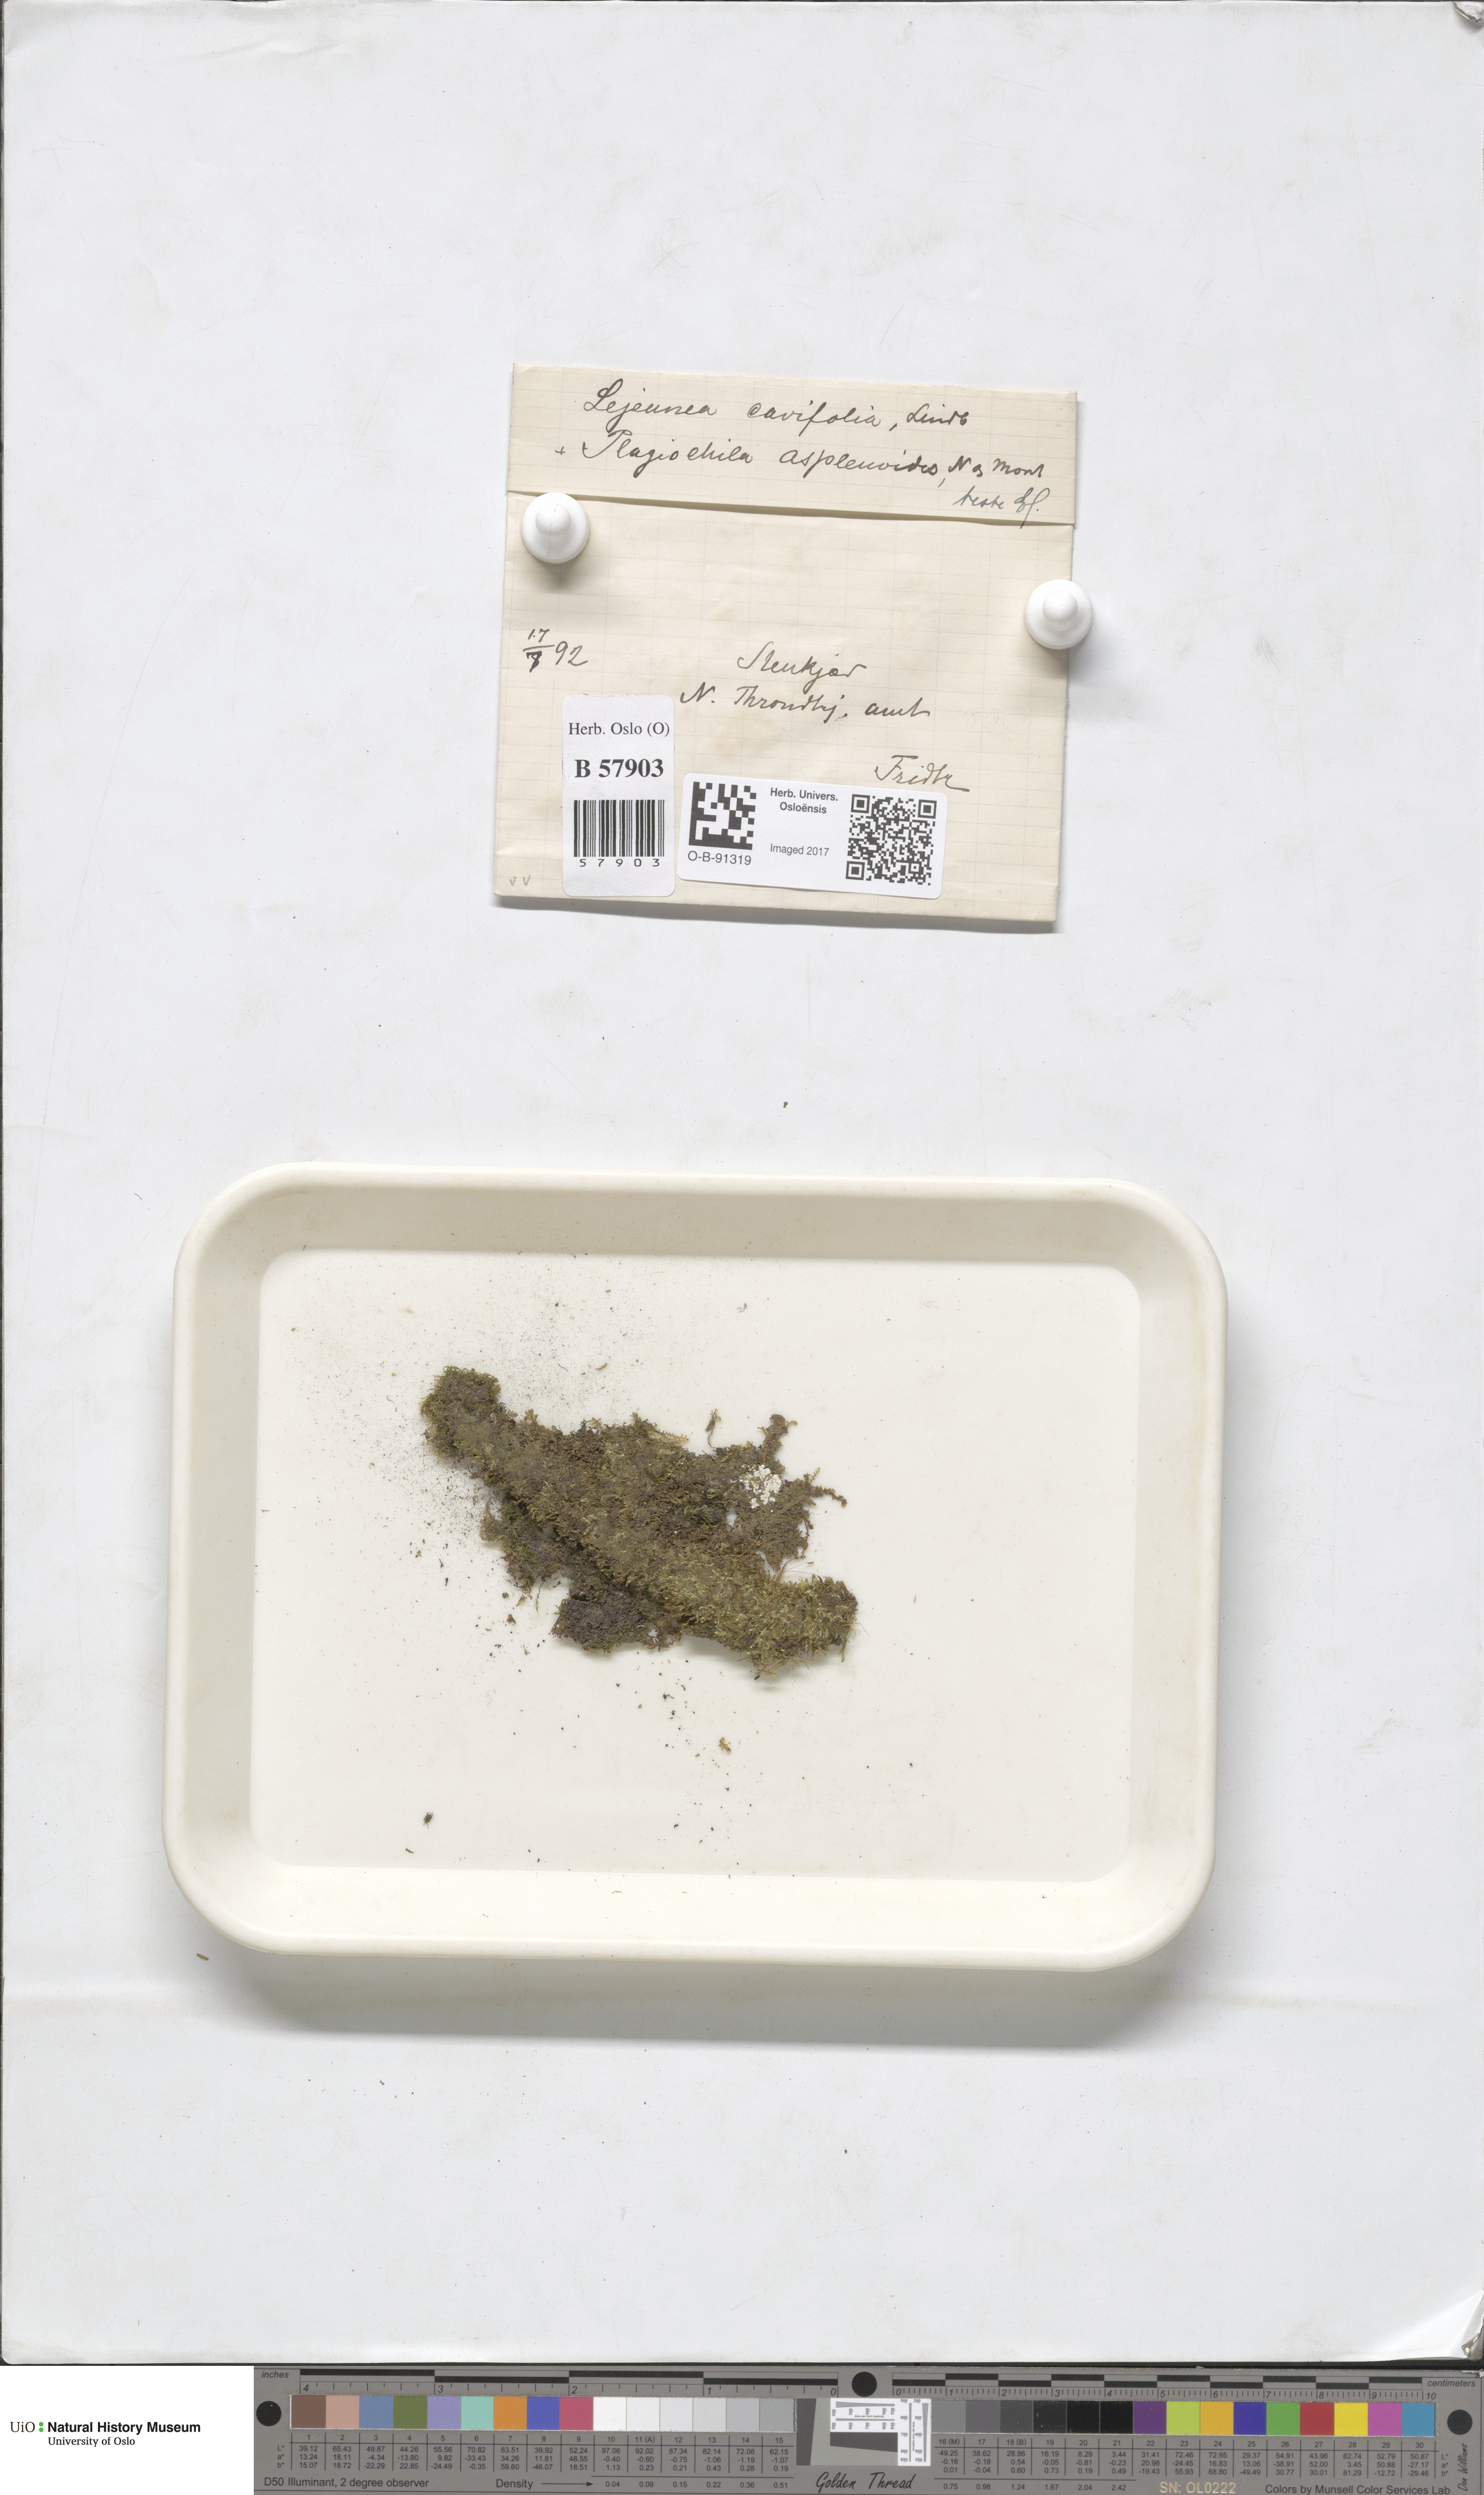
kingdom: Plantae
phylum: Marchantiophyta
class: Jungermanniopsida
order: Porellales
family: Lejeuneaceae
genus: Lejeunea
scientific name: Lejeunea cavifolia
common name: Least pouncewort
